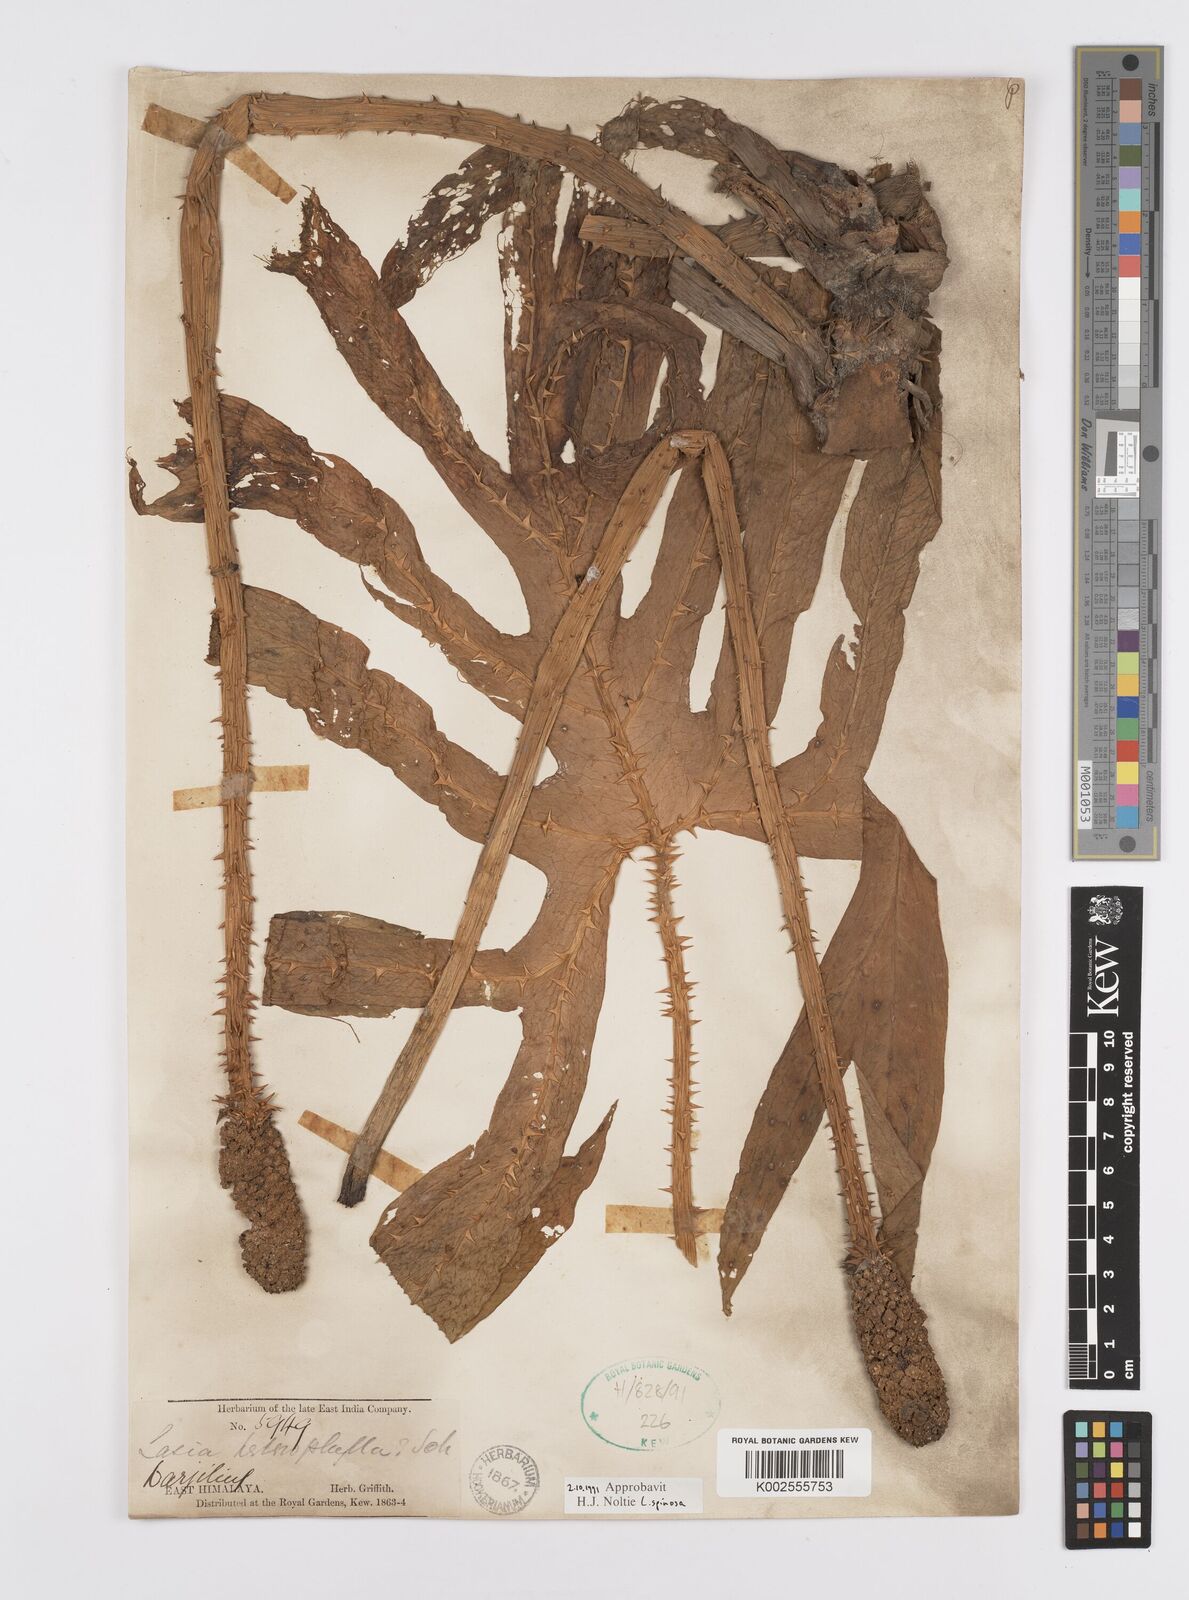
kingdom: Plantae
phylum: Tracheophyta
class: Liliopsida
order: Alismatales
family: Araceae
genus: Lasia
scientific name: Lasia spinosa
